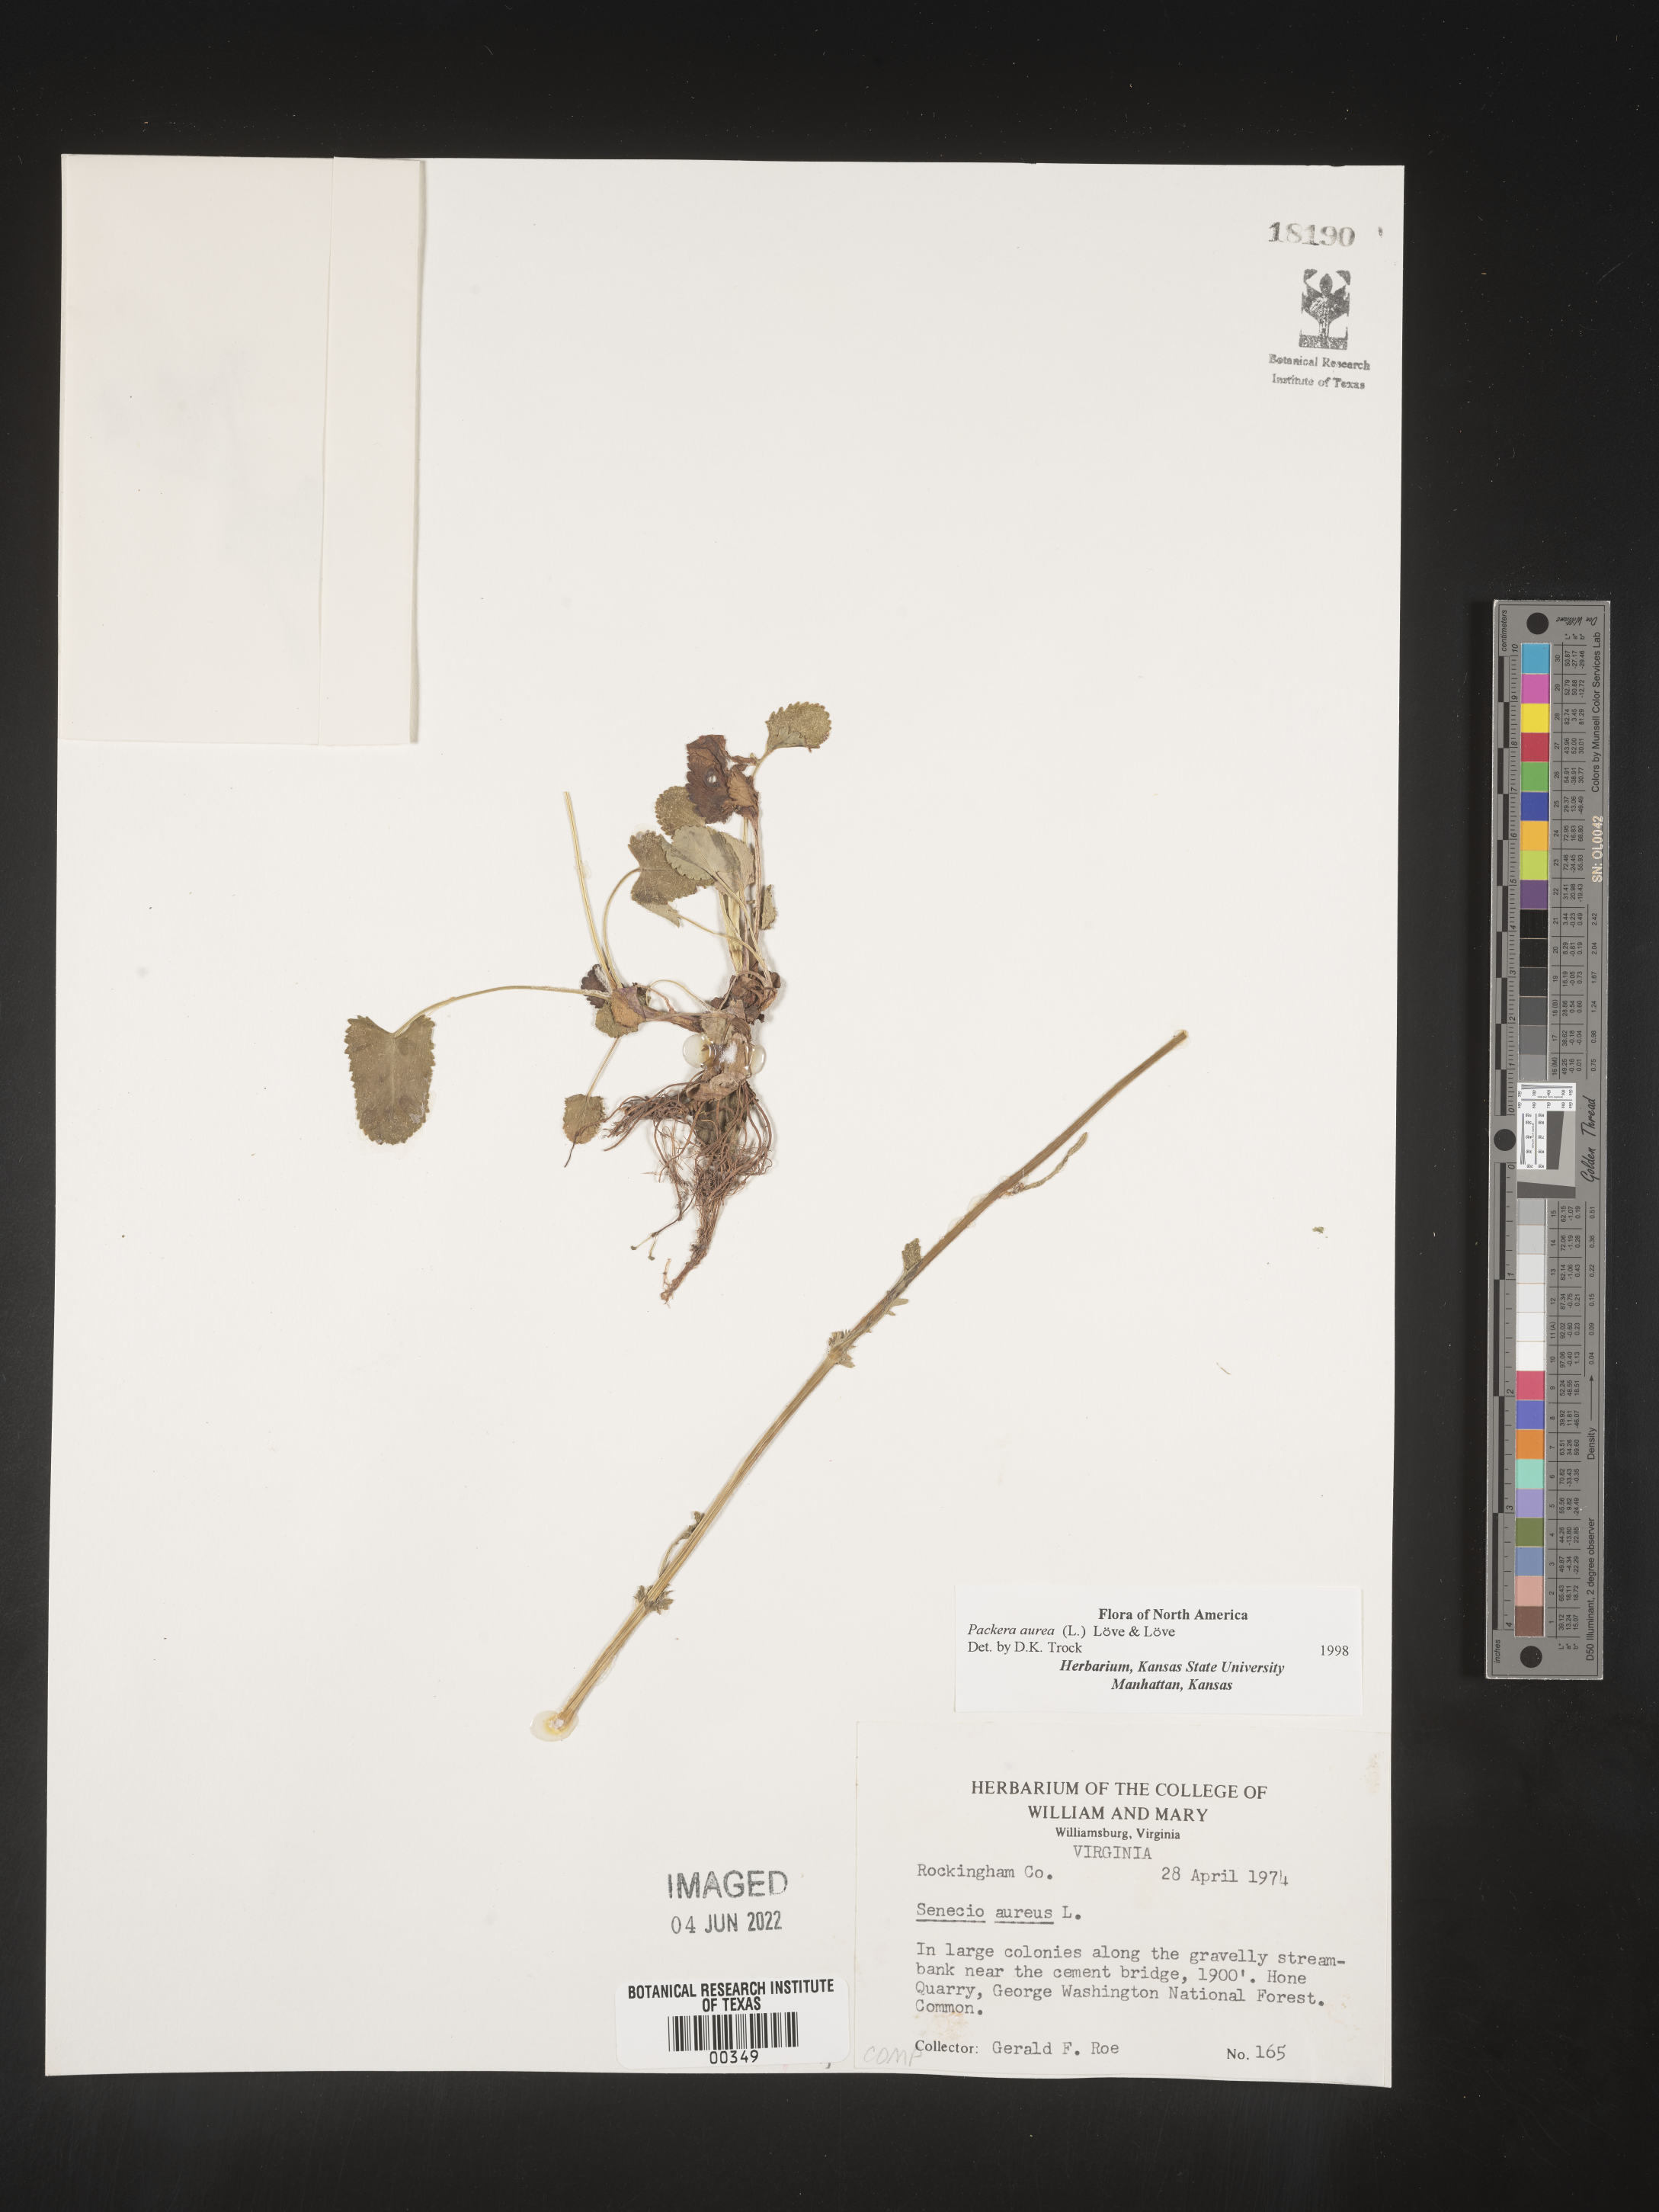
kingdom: Plantae
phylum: Tracheophyta
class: Magnoliopsida
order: Asterales
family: Asteraceae
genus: Packera
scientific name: Packera aurea
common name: Golden groundsel
